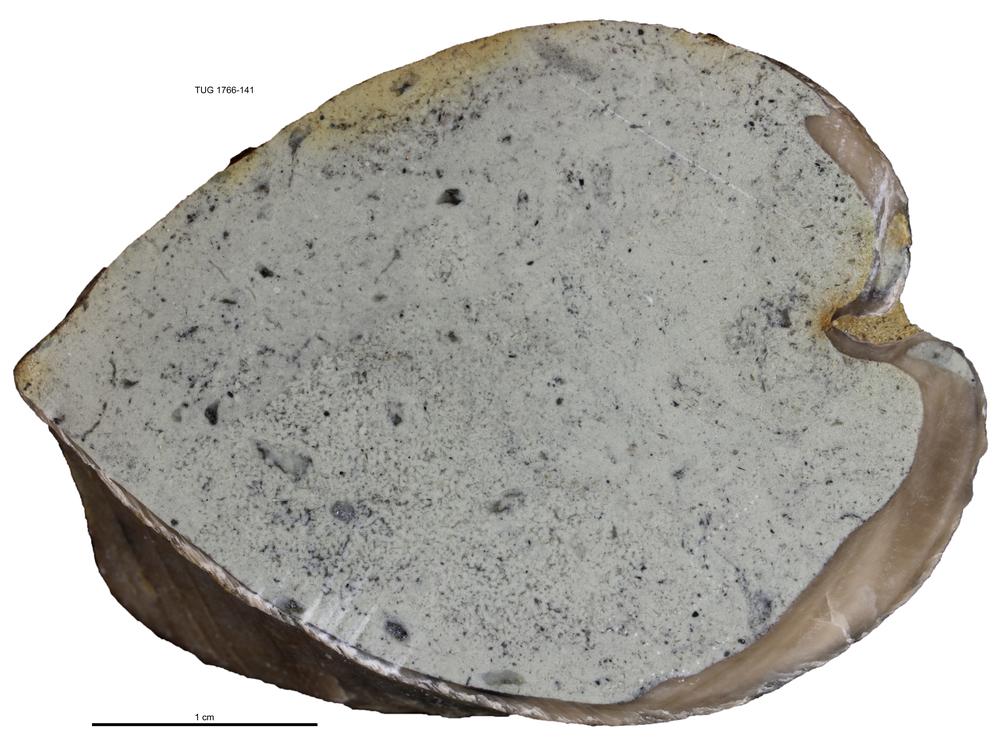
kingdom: Animalia
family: Coprulidae
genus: Coprulus
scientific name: Coprulus
